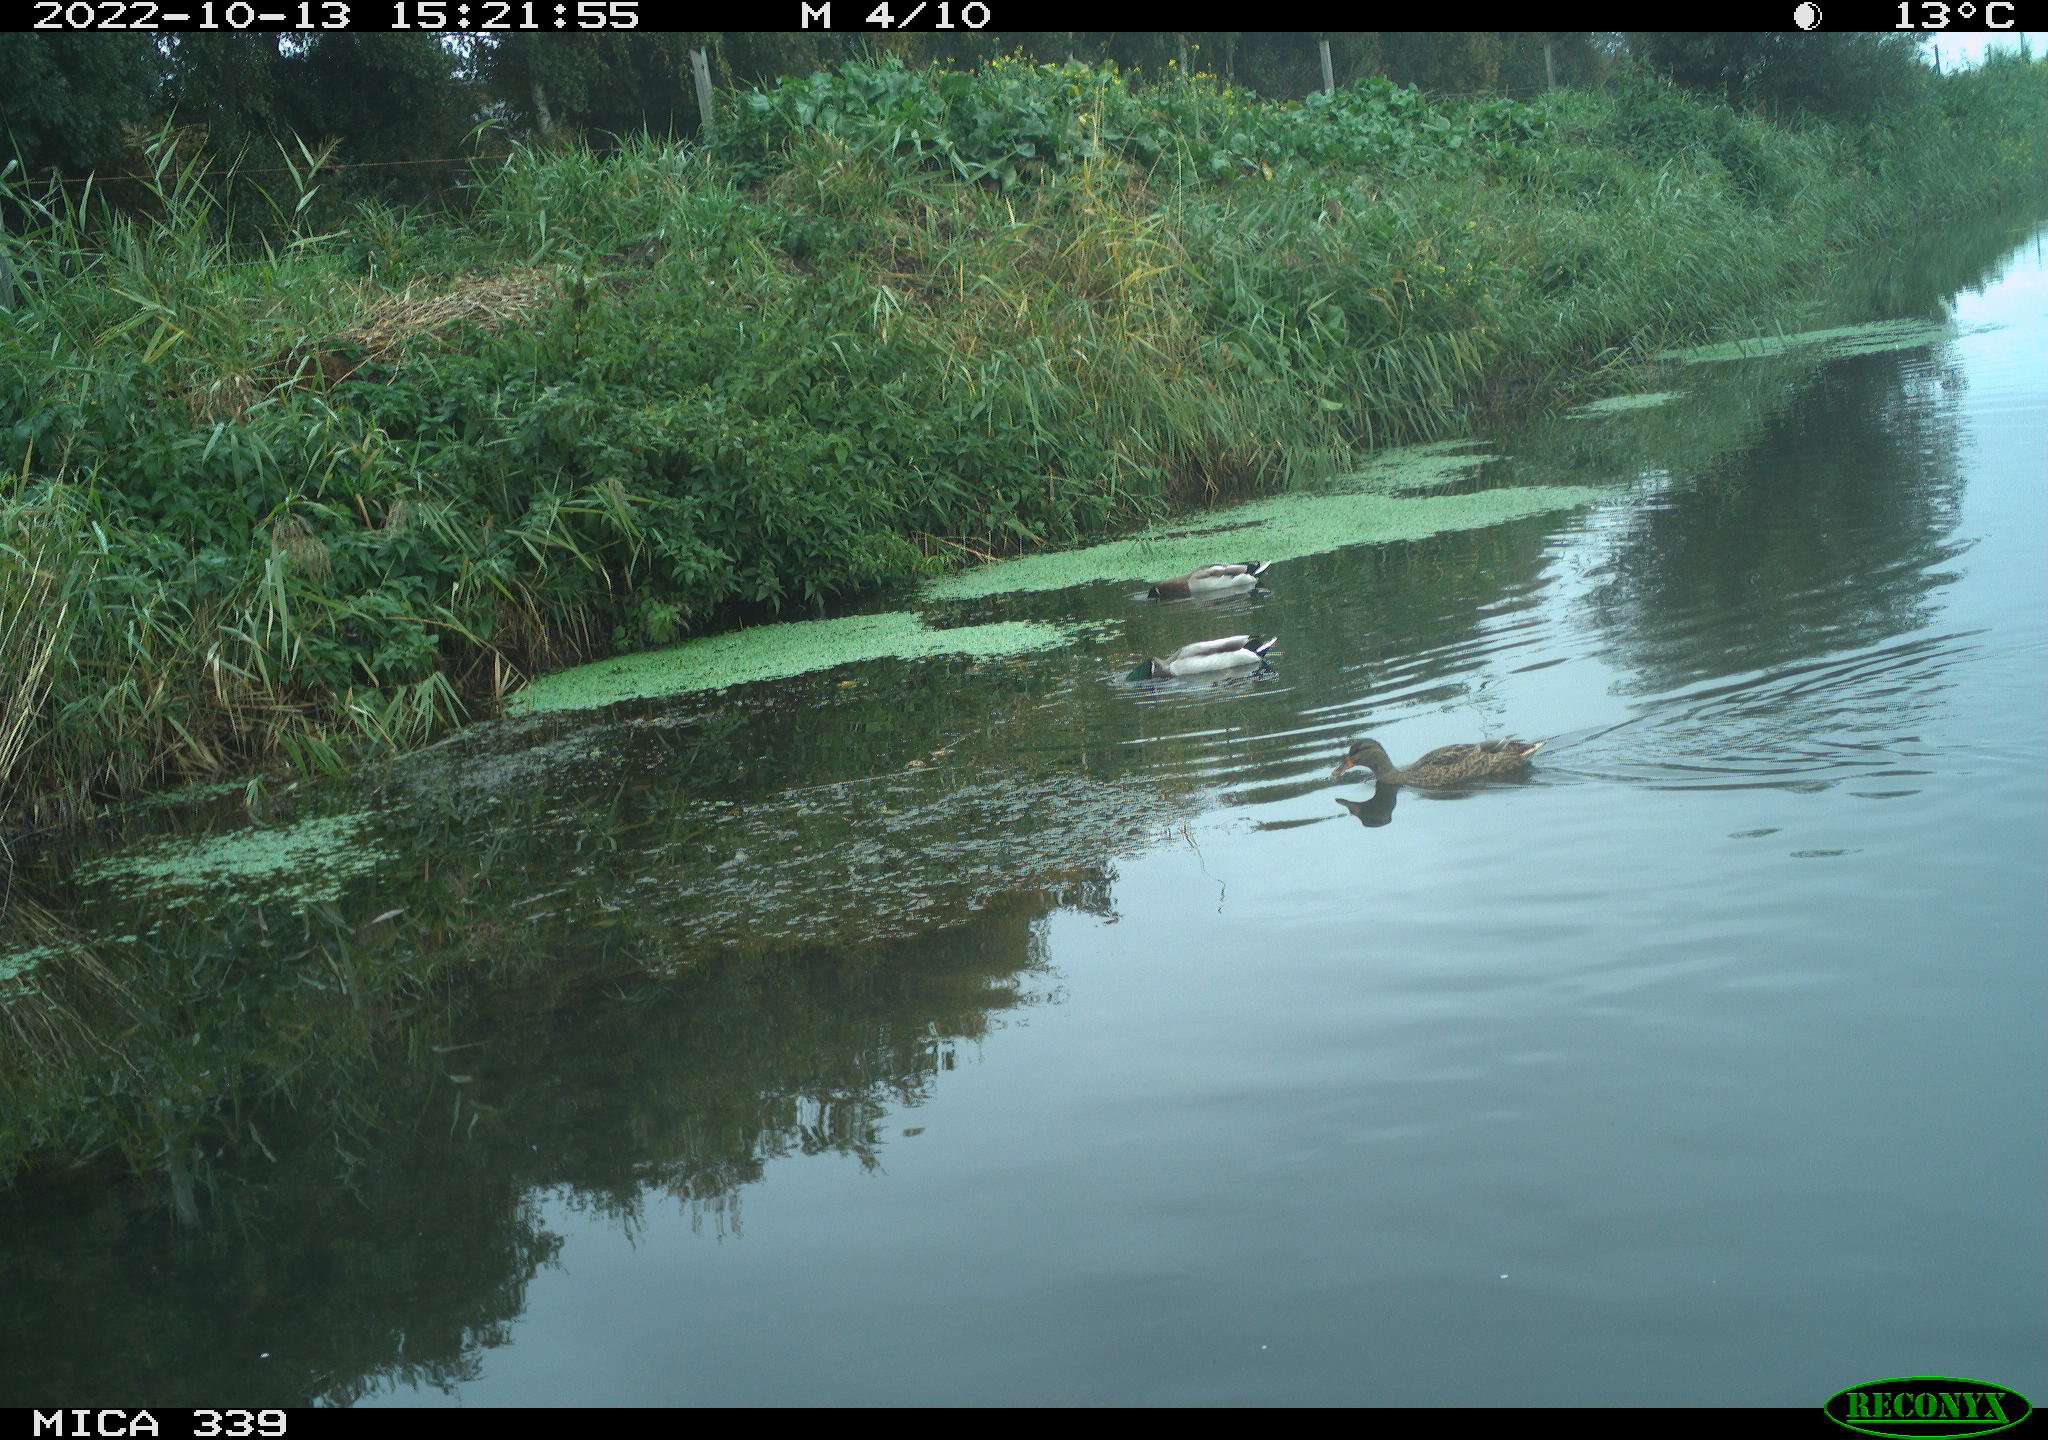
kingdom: Animalia
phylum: Chordata
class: Aves
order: Anseriformes
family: Anatidae
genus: Anas
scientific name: Anas platyrhynchos
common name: Mallard
